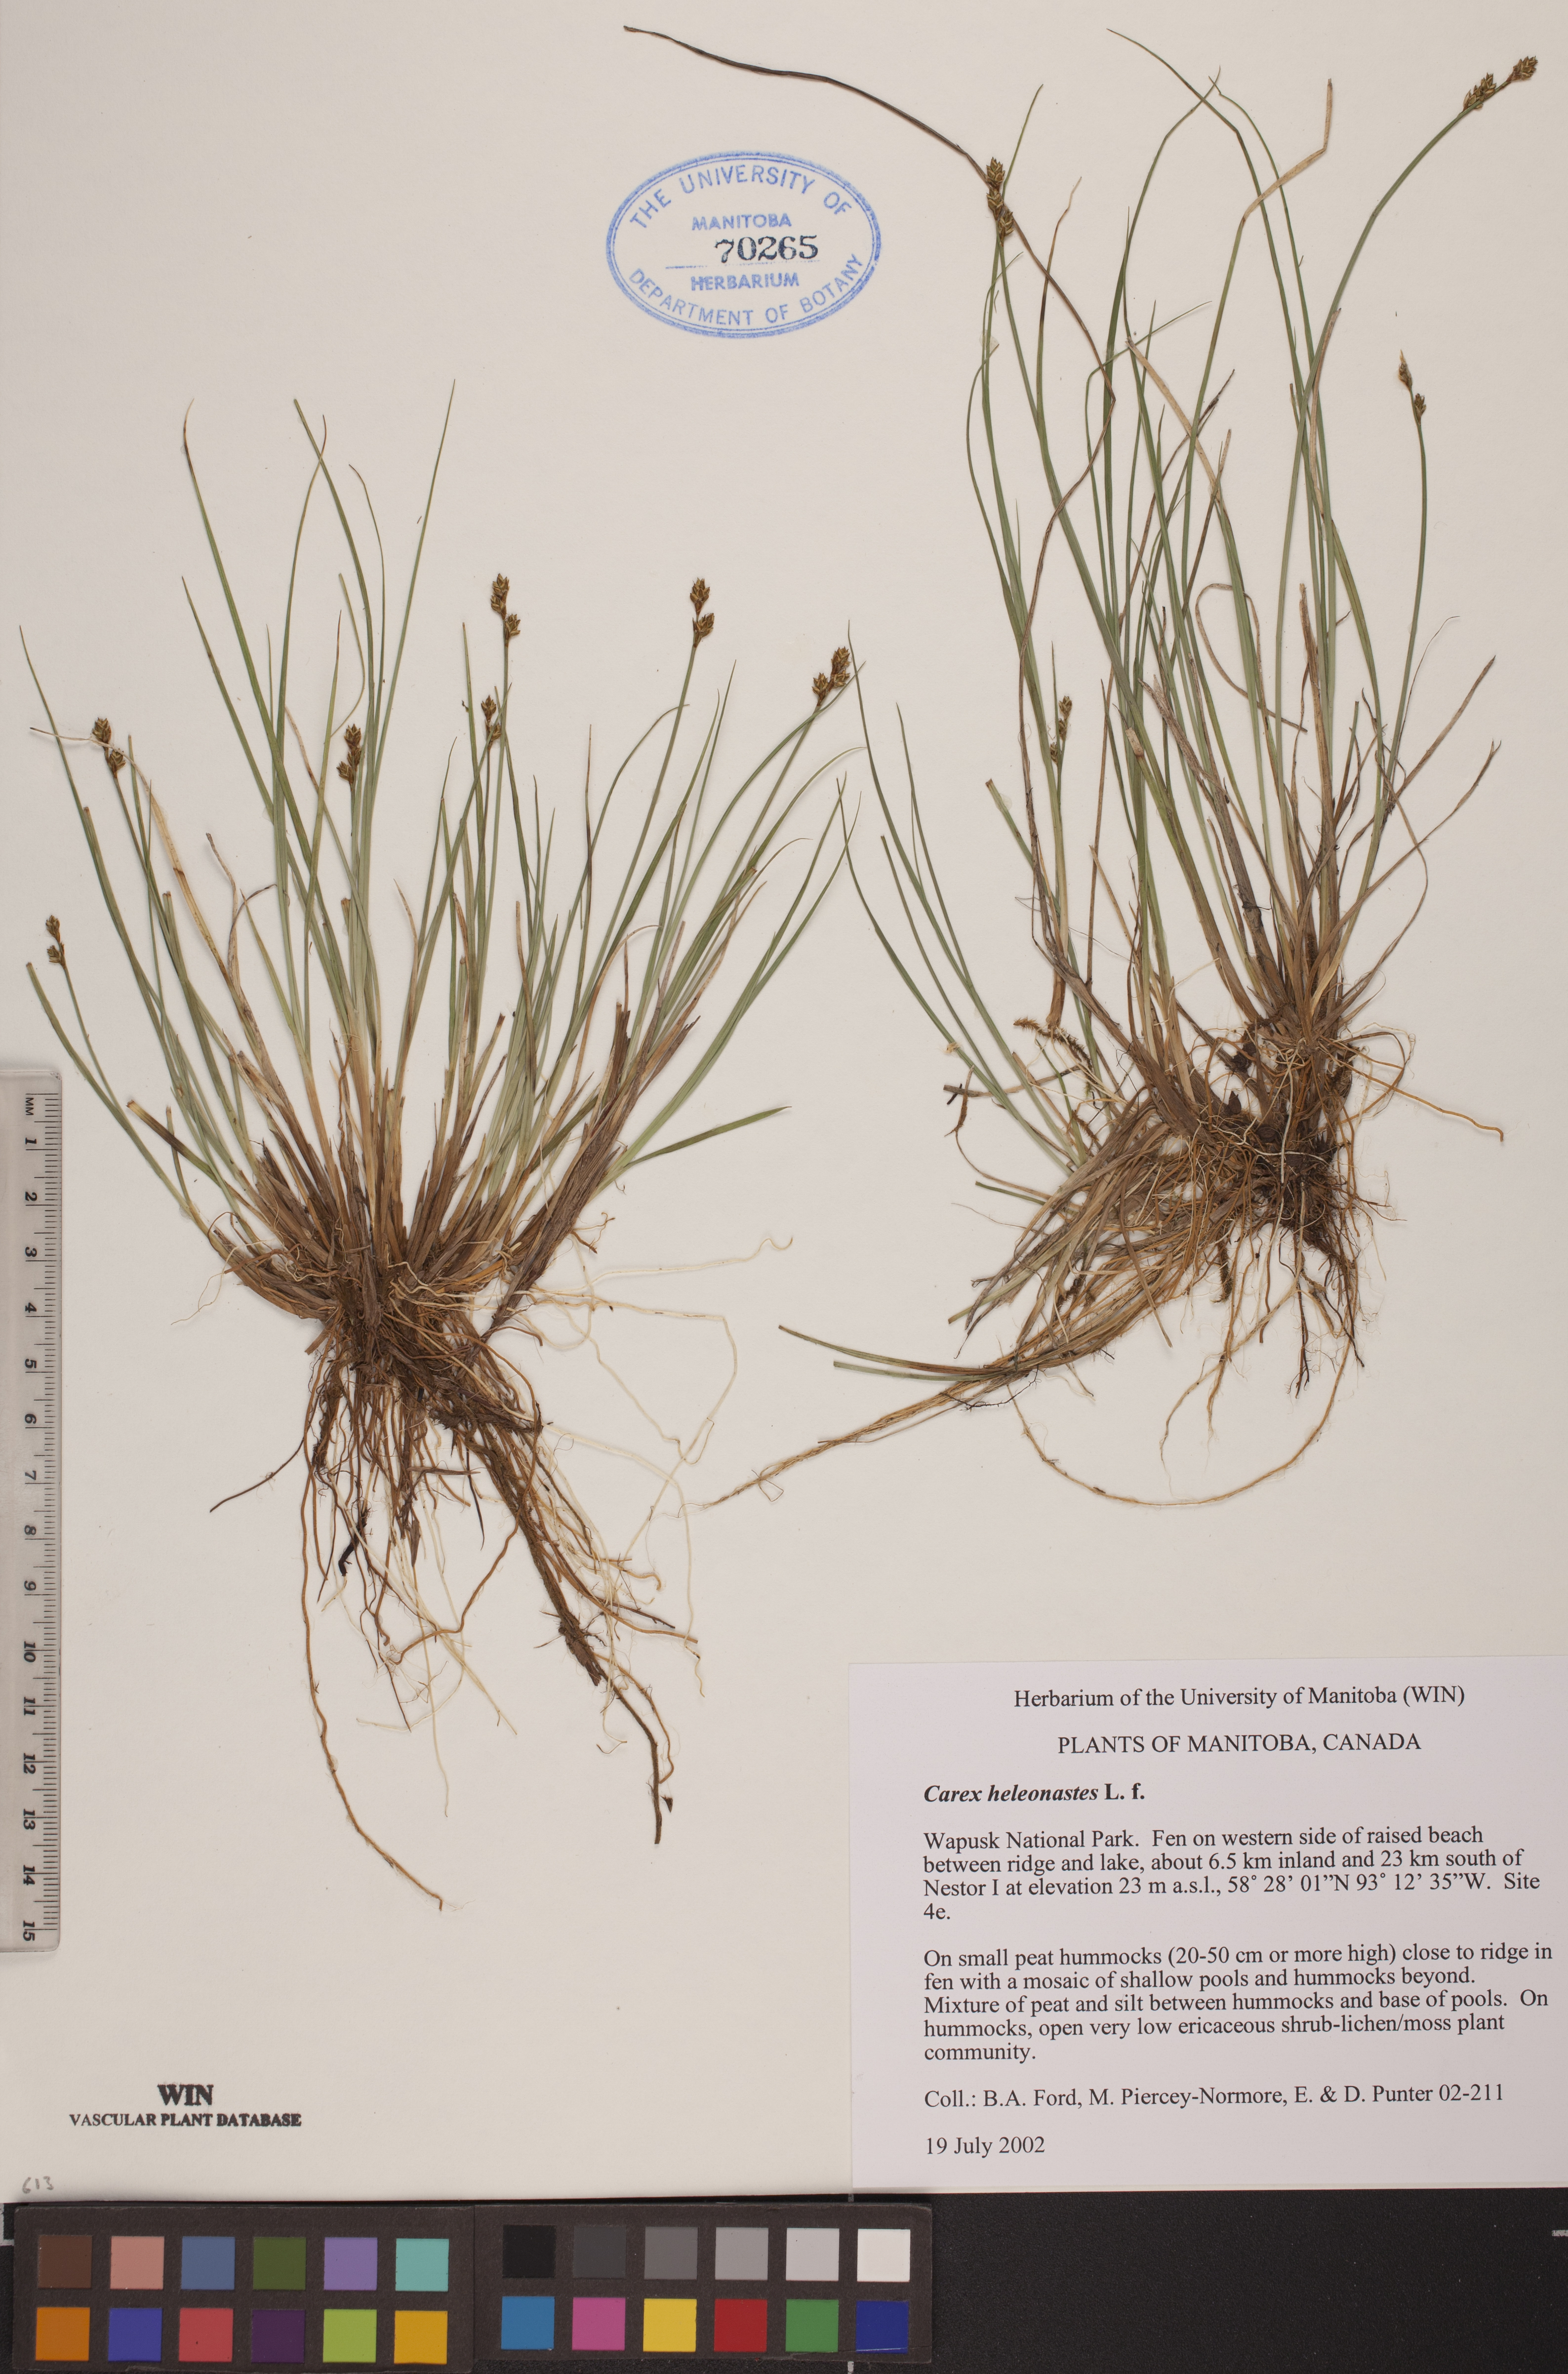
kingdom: Plantae
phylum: Tracheophyta
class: Liliopsida
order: Poales
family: Cyperaceae
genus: Carex
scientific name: Carex heleonastes
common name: Hudson bay sedge
